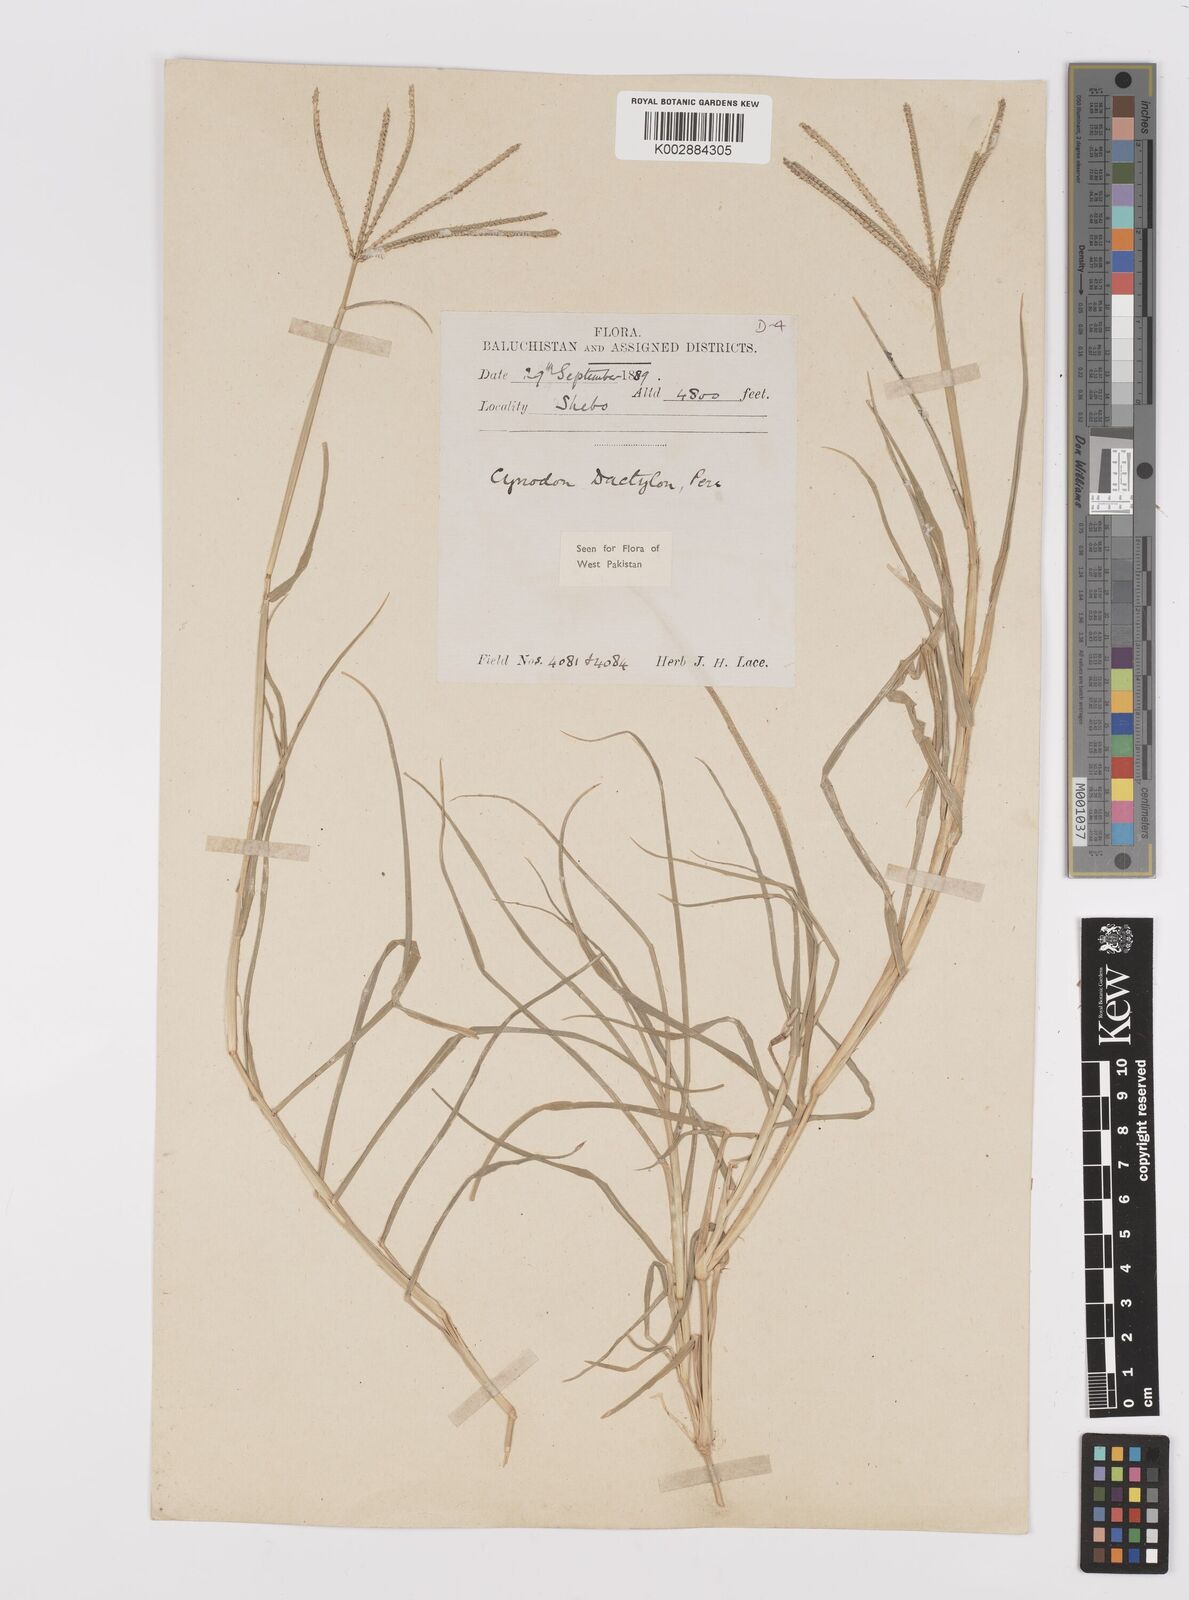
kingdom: Plantae
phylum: Tracheophyta
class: Liliopsida
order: Poales
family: Poaceae
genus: Cynodon
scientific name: Cynodon dactylon
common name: Bermuda grass
